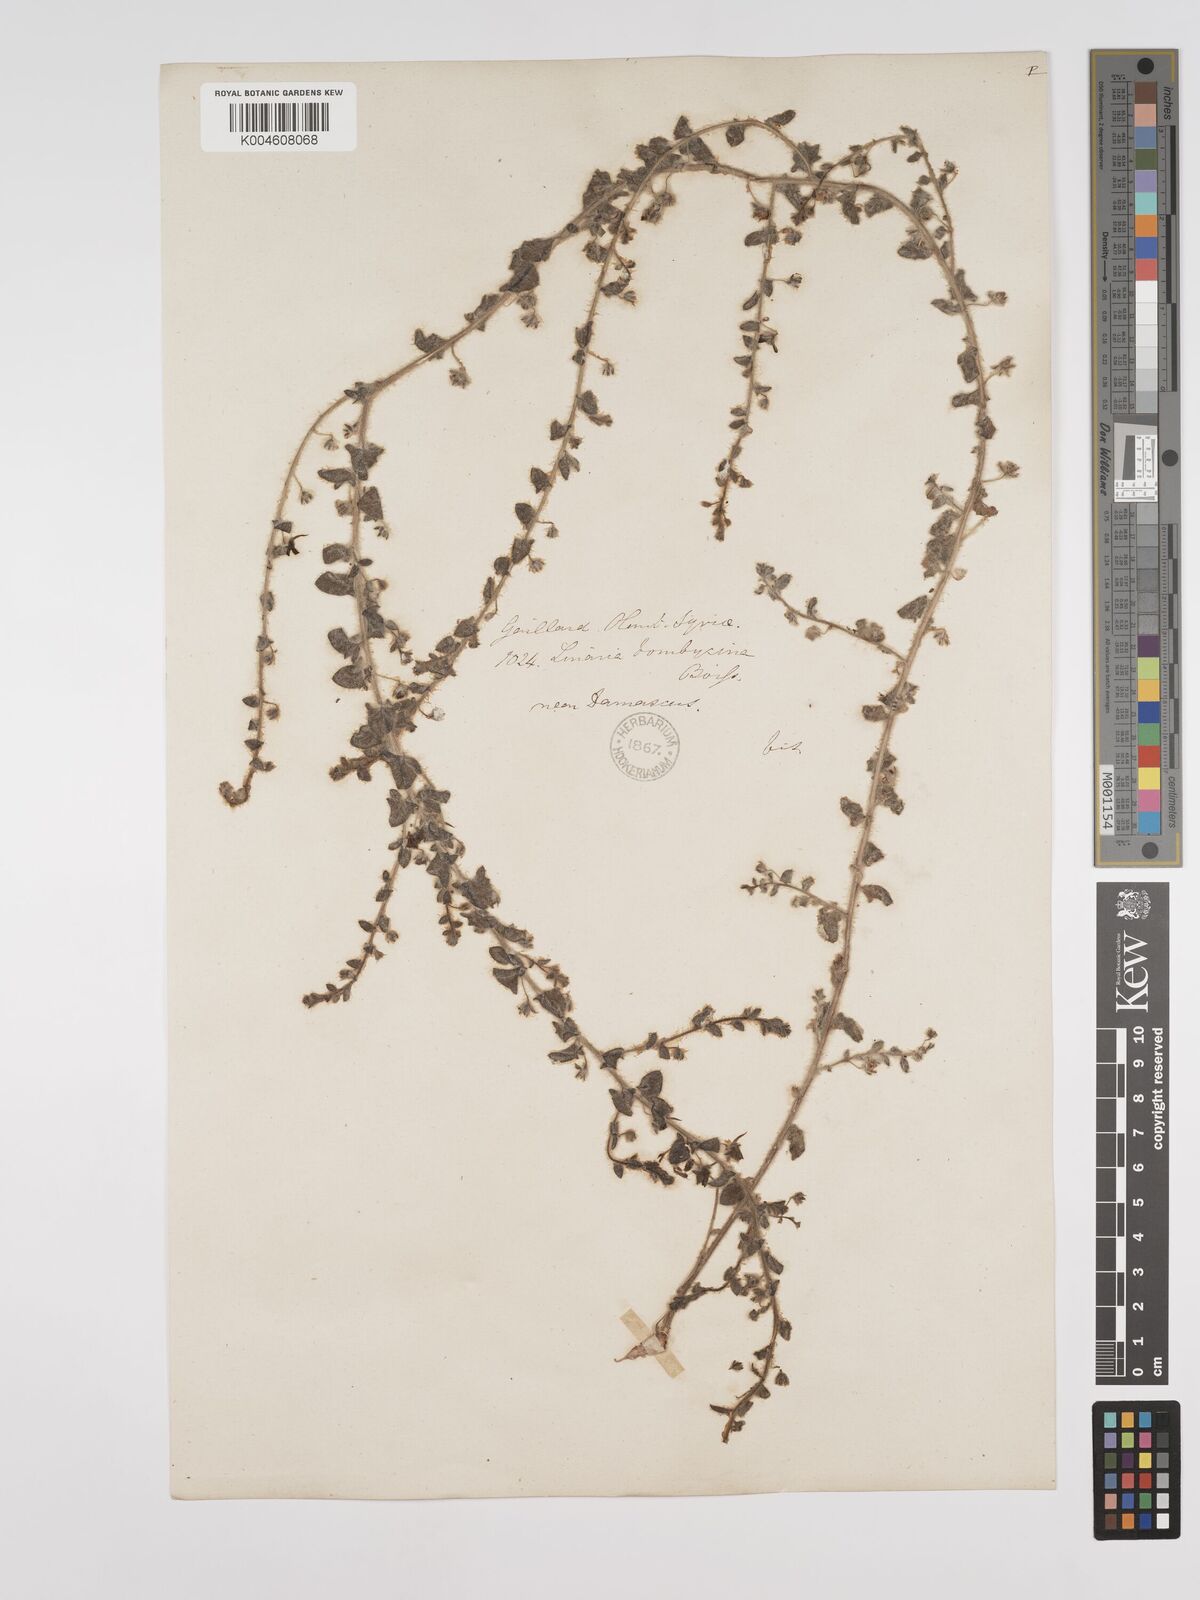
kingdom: Plantae
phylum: Tracheophyta
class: Magnoliopsida
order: Lamiales
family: Plantaginaceae
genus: Kickxia
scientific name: Kickxia elatine
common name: Sharp-leaved fluellen
